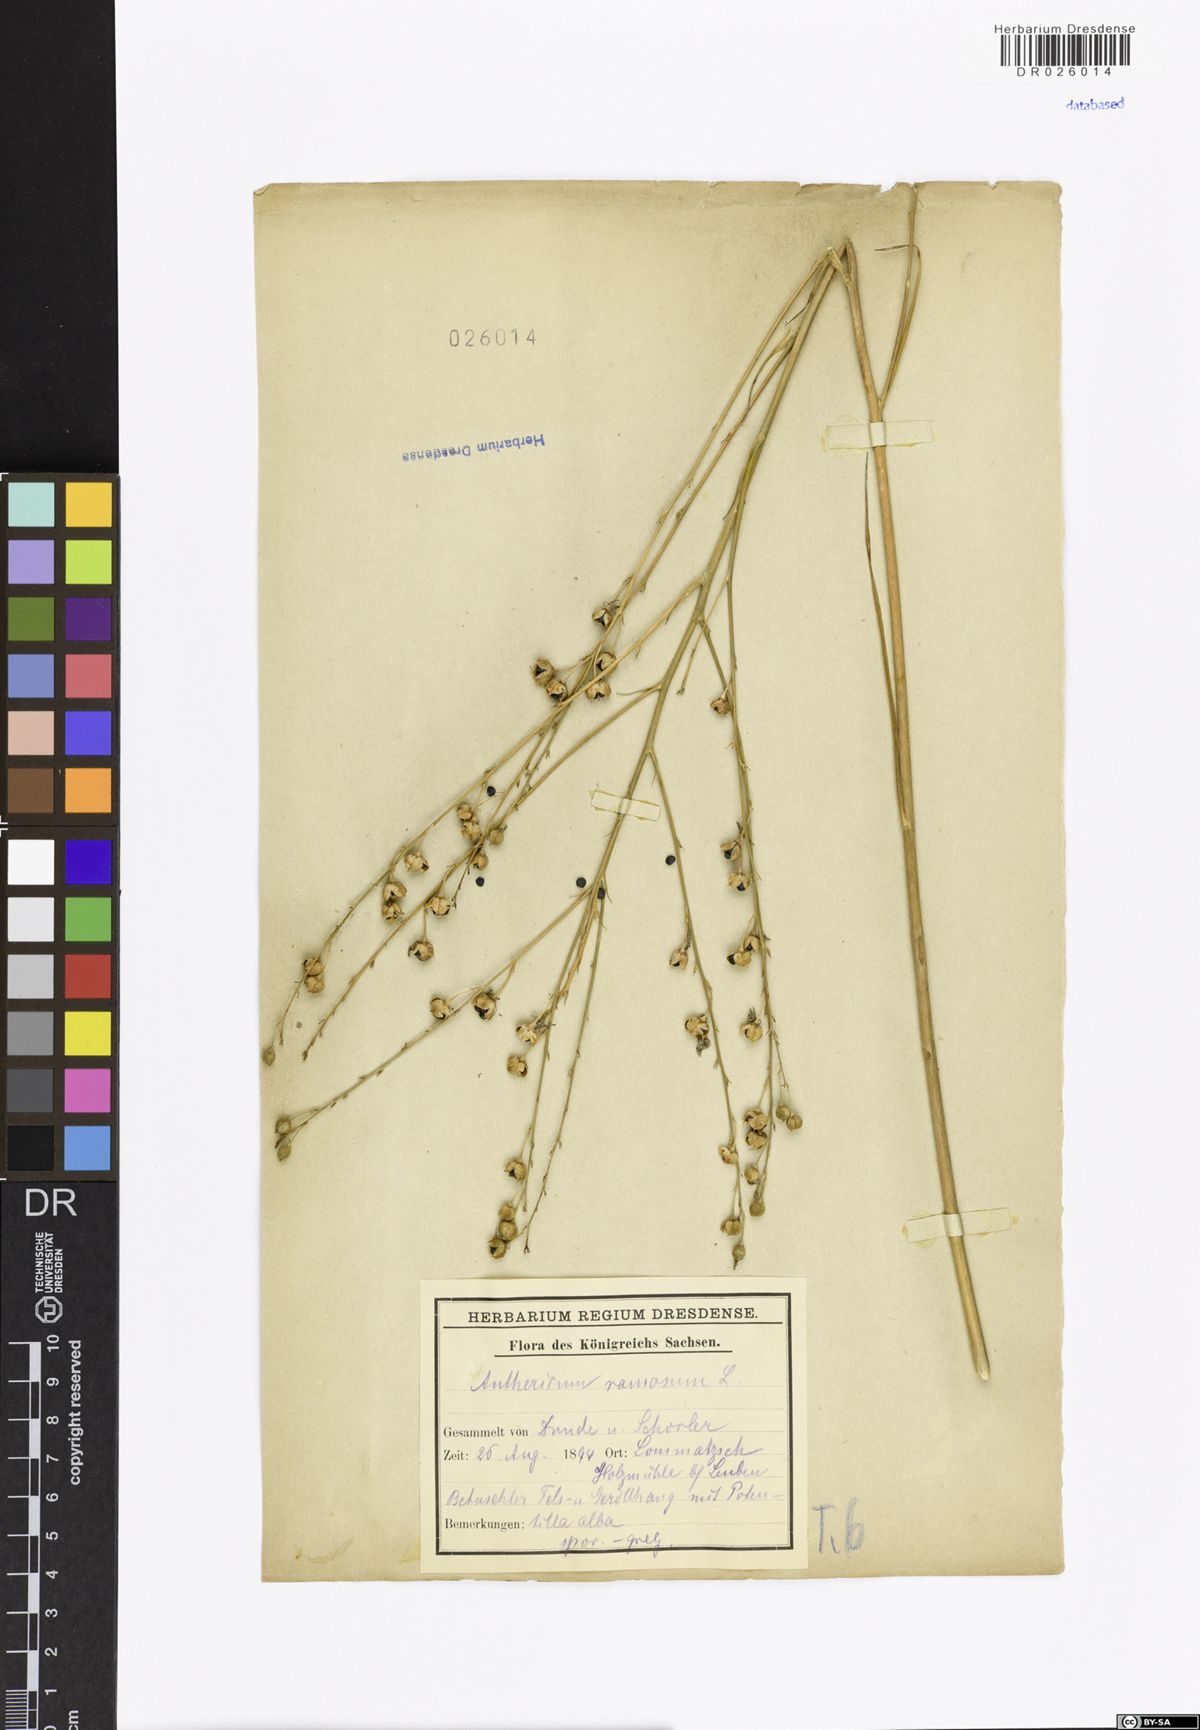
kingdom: Plantae
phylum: Tracheophyta
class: Liliopsida
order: Asparagales
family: Asparagaceae
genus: Anthericum
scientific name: Anthericum ramosum
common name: Branched st. bernard's-lily
